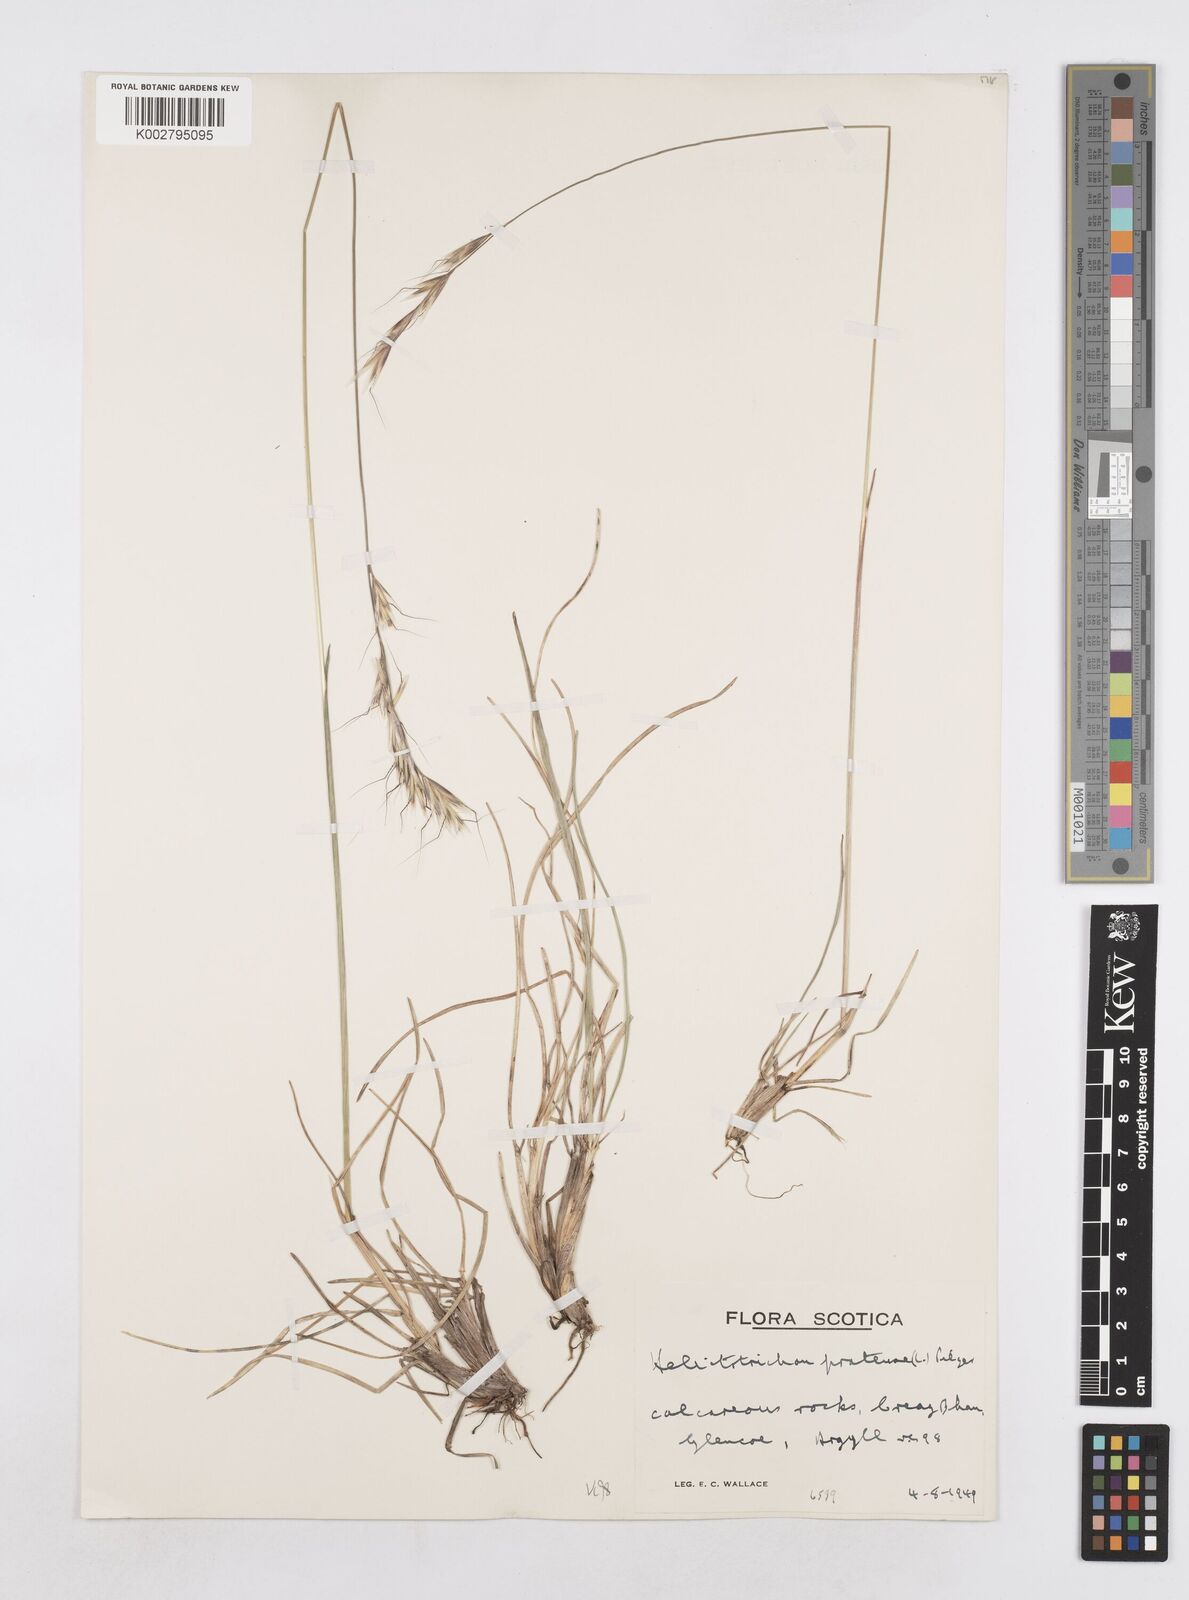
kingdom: Plantae
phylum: Tracheophyta
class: Liliopsida
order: Poales
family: Poaceae
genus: Helictochloa
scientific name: Helictochloa pratensis
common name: Meadow oat grass
